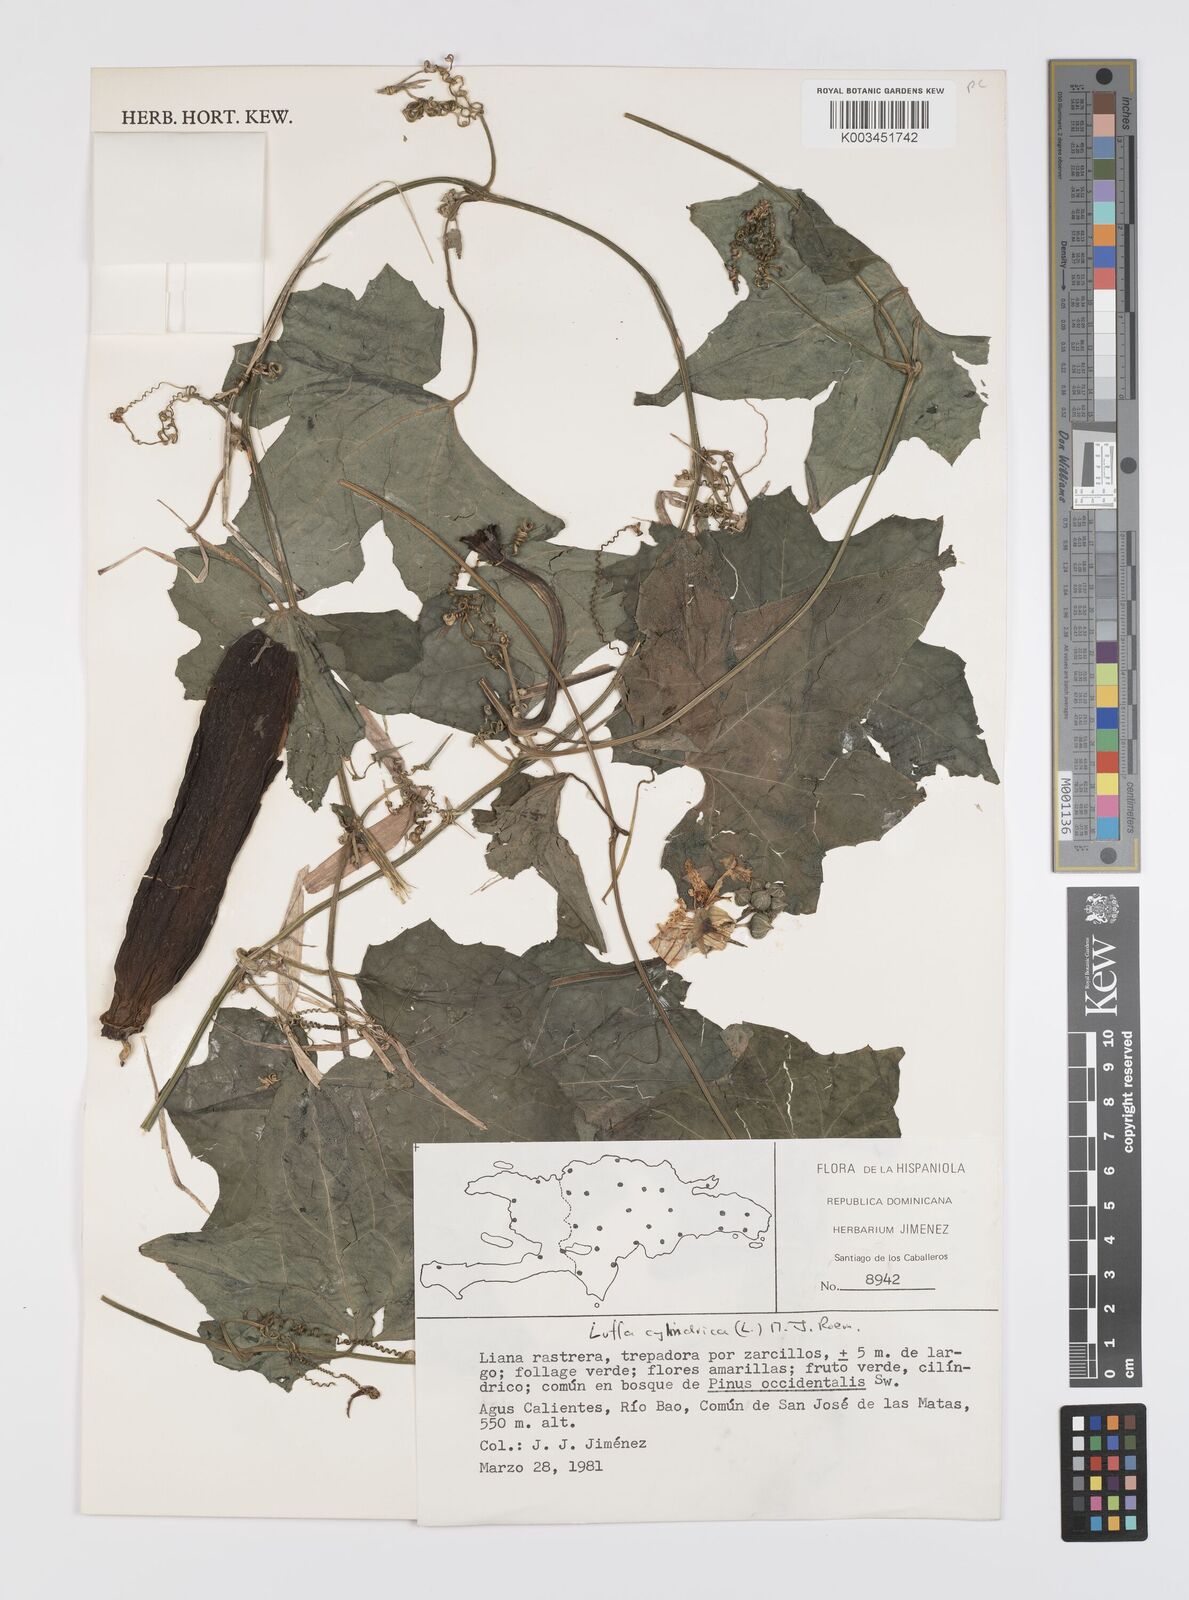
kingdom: Plantae
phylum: Tracheophyta
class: Magnoliopsida
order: Cucurbitales
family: Cucurbitaceae
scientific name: Cucurbitaceae
